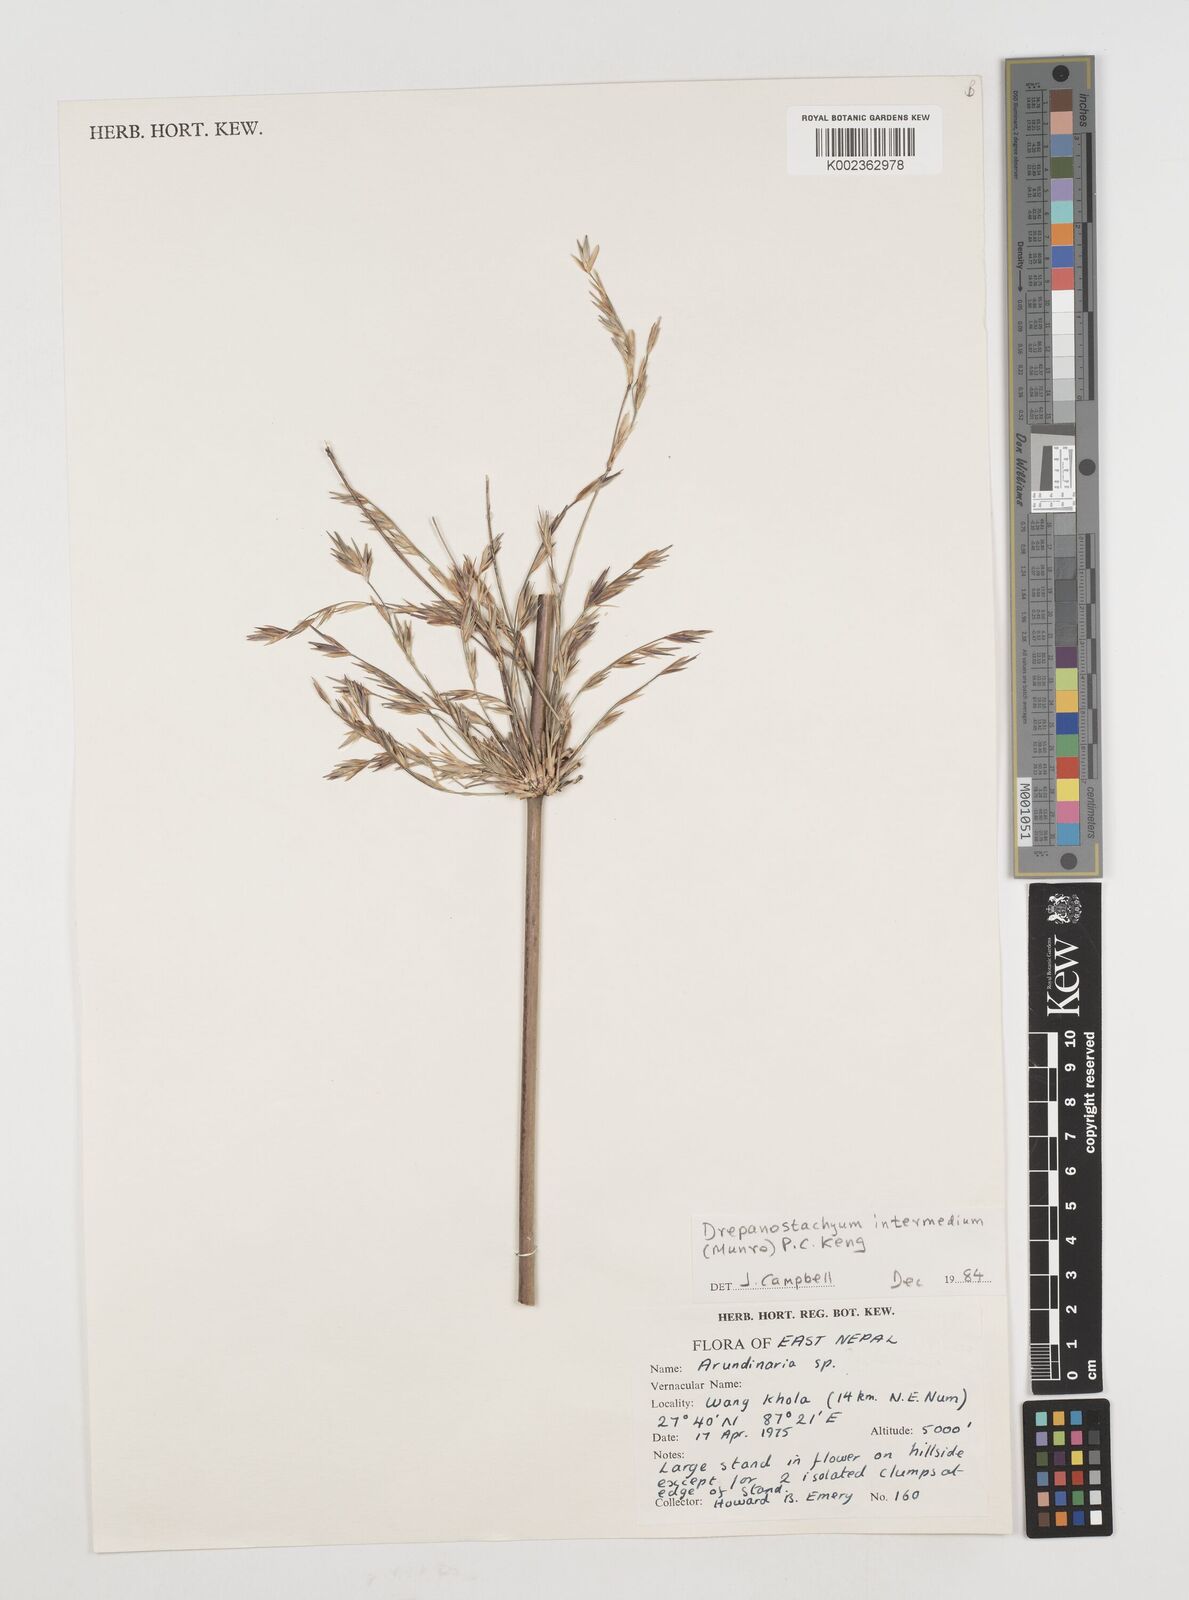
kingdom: Plantae
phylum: Tracheophyta
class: Liliopsida
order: Poales
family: Poaceae
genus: Drepanostachyum
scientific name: Drepanostachyum intermedium
